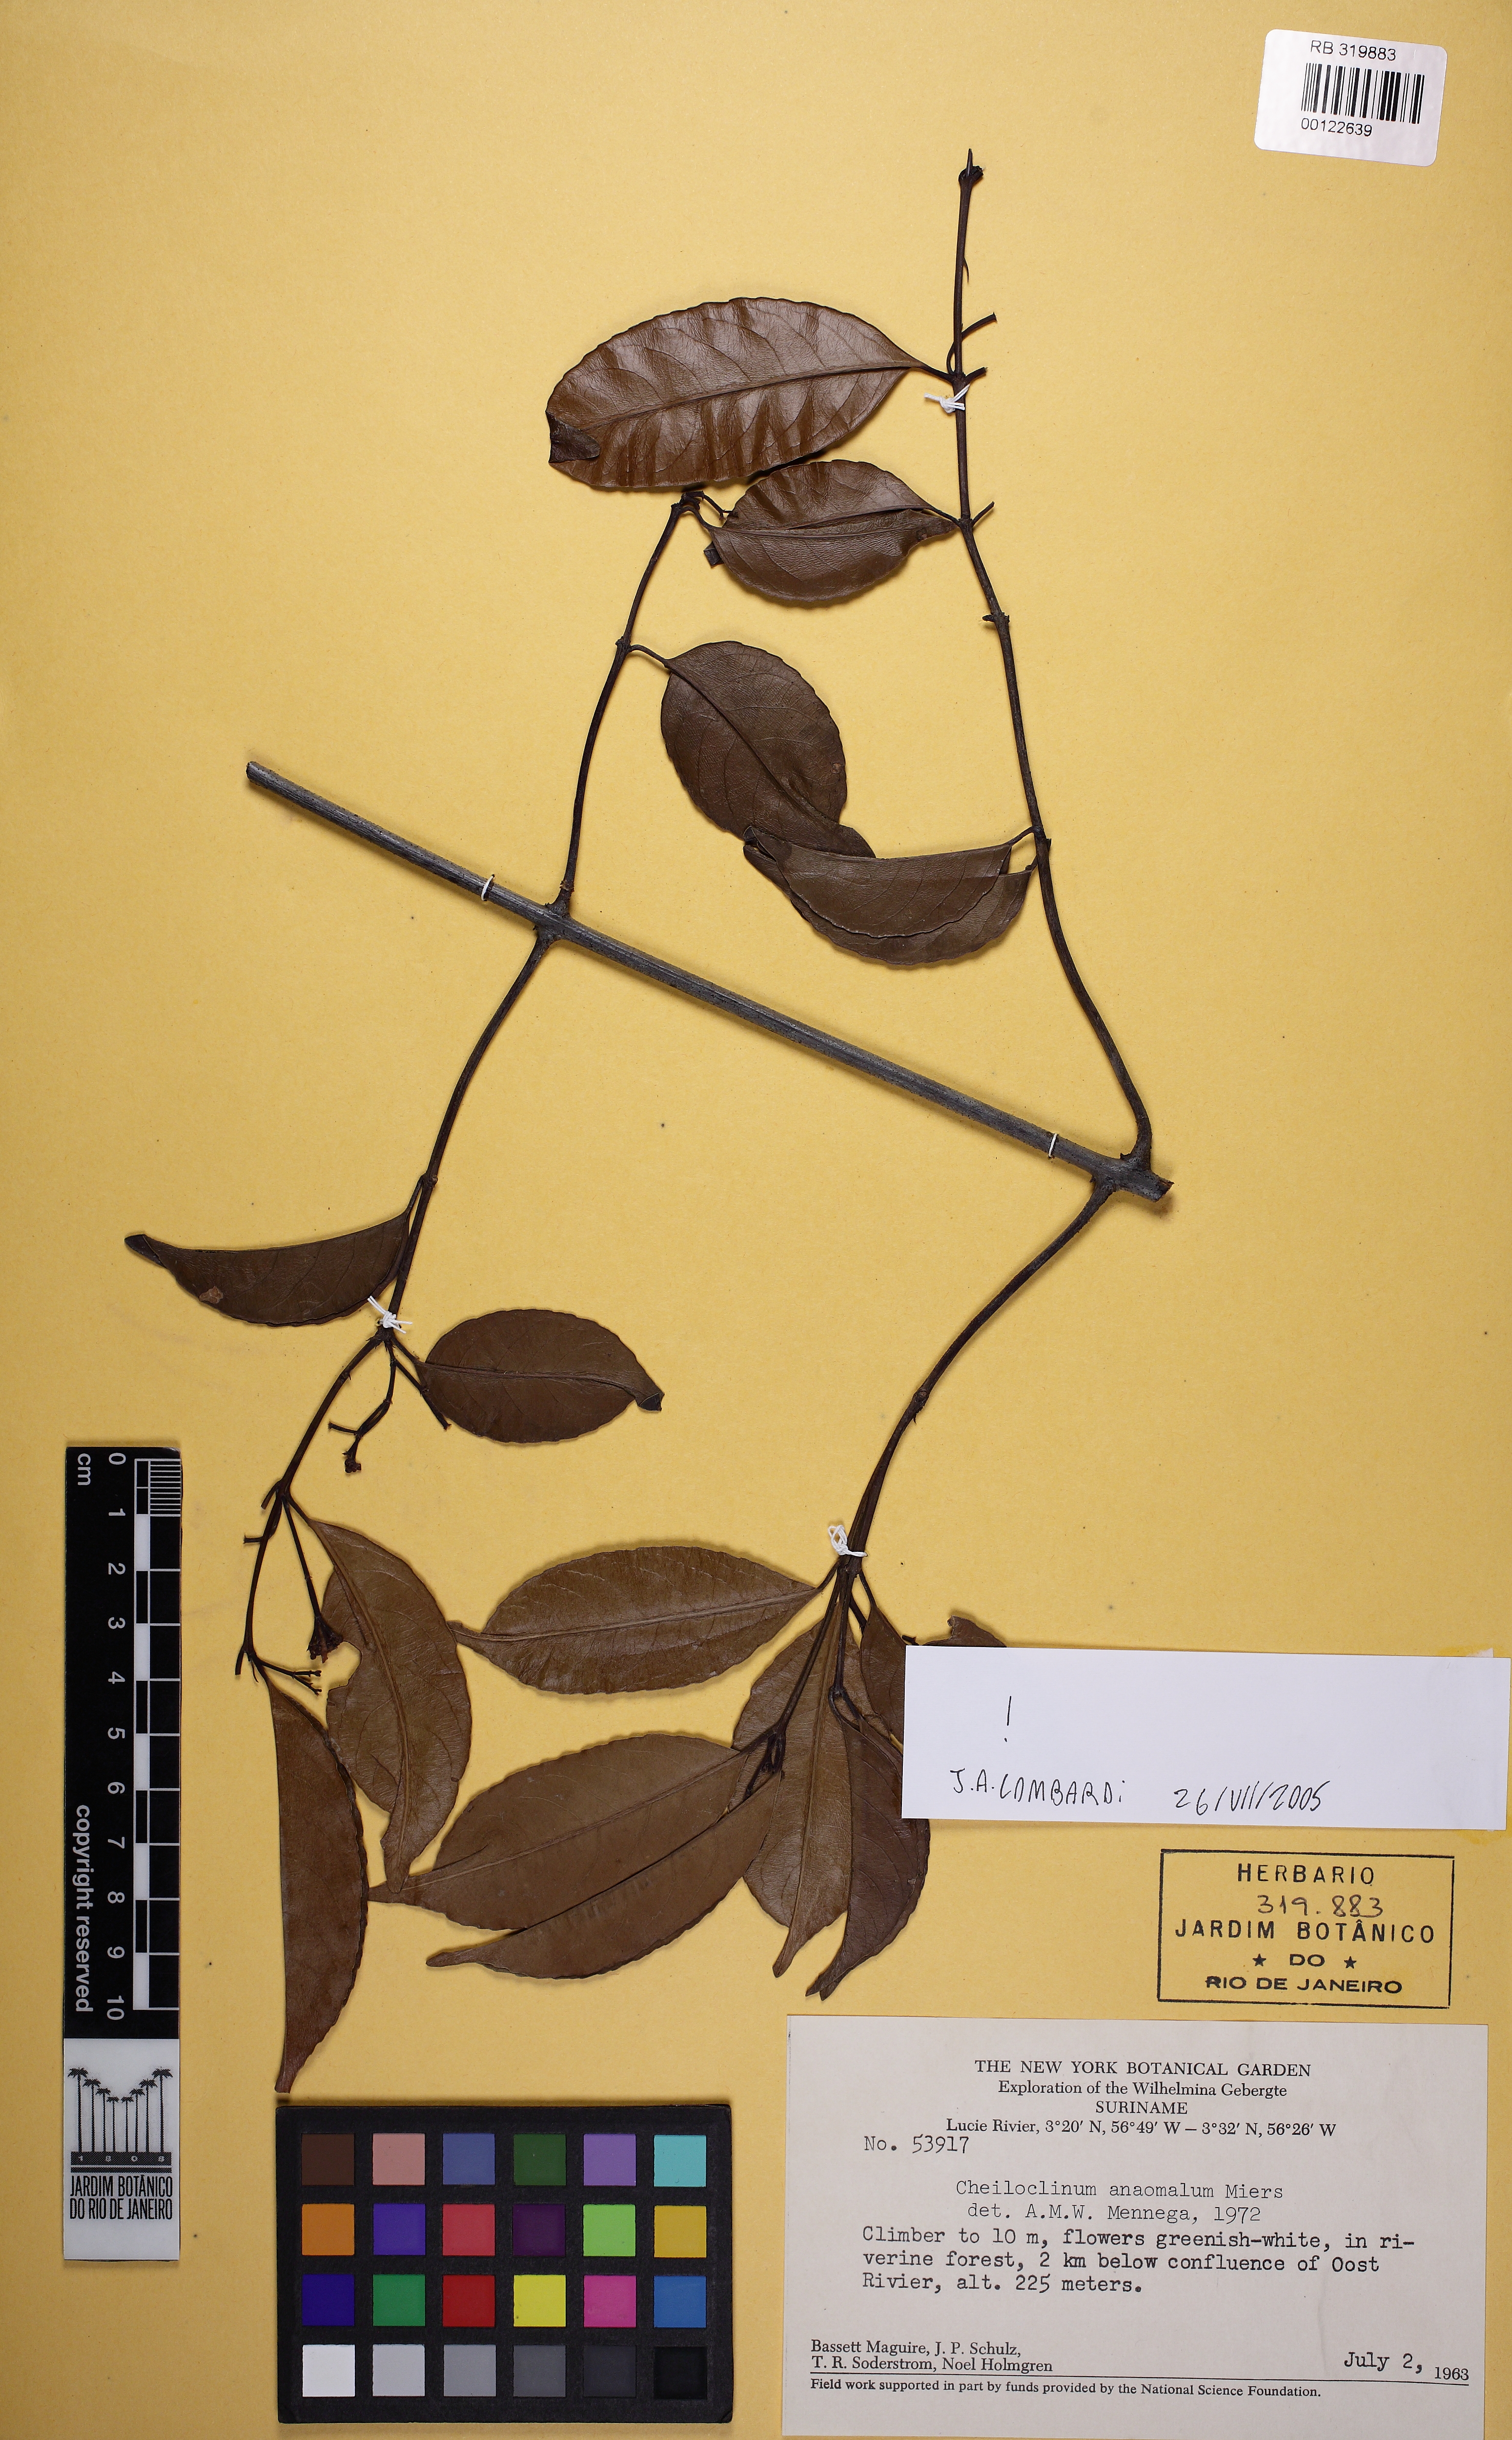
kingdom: Plantae
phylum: Tracheophyta
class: Magnoliopsida
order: Celastrales
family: Celastraceae
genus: Cheiloclinium
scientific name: Cheiloclinium anomalum
